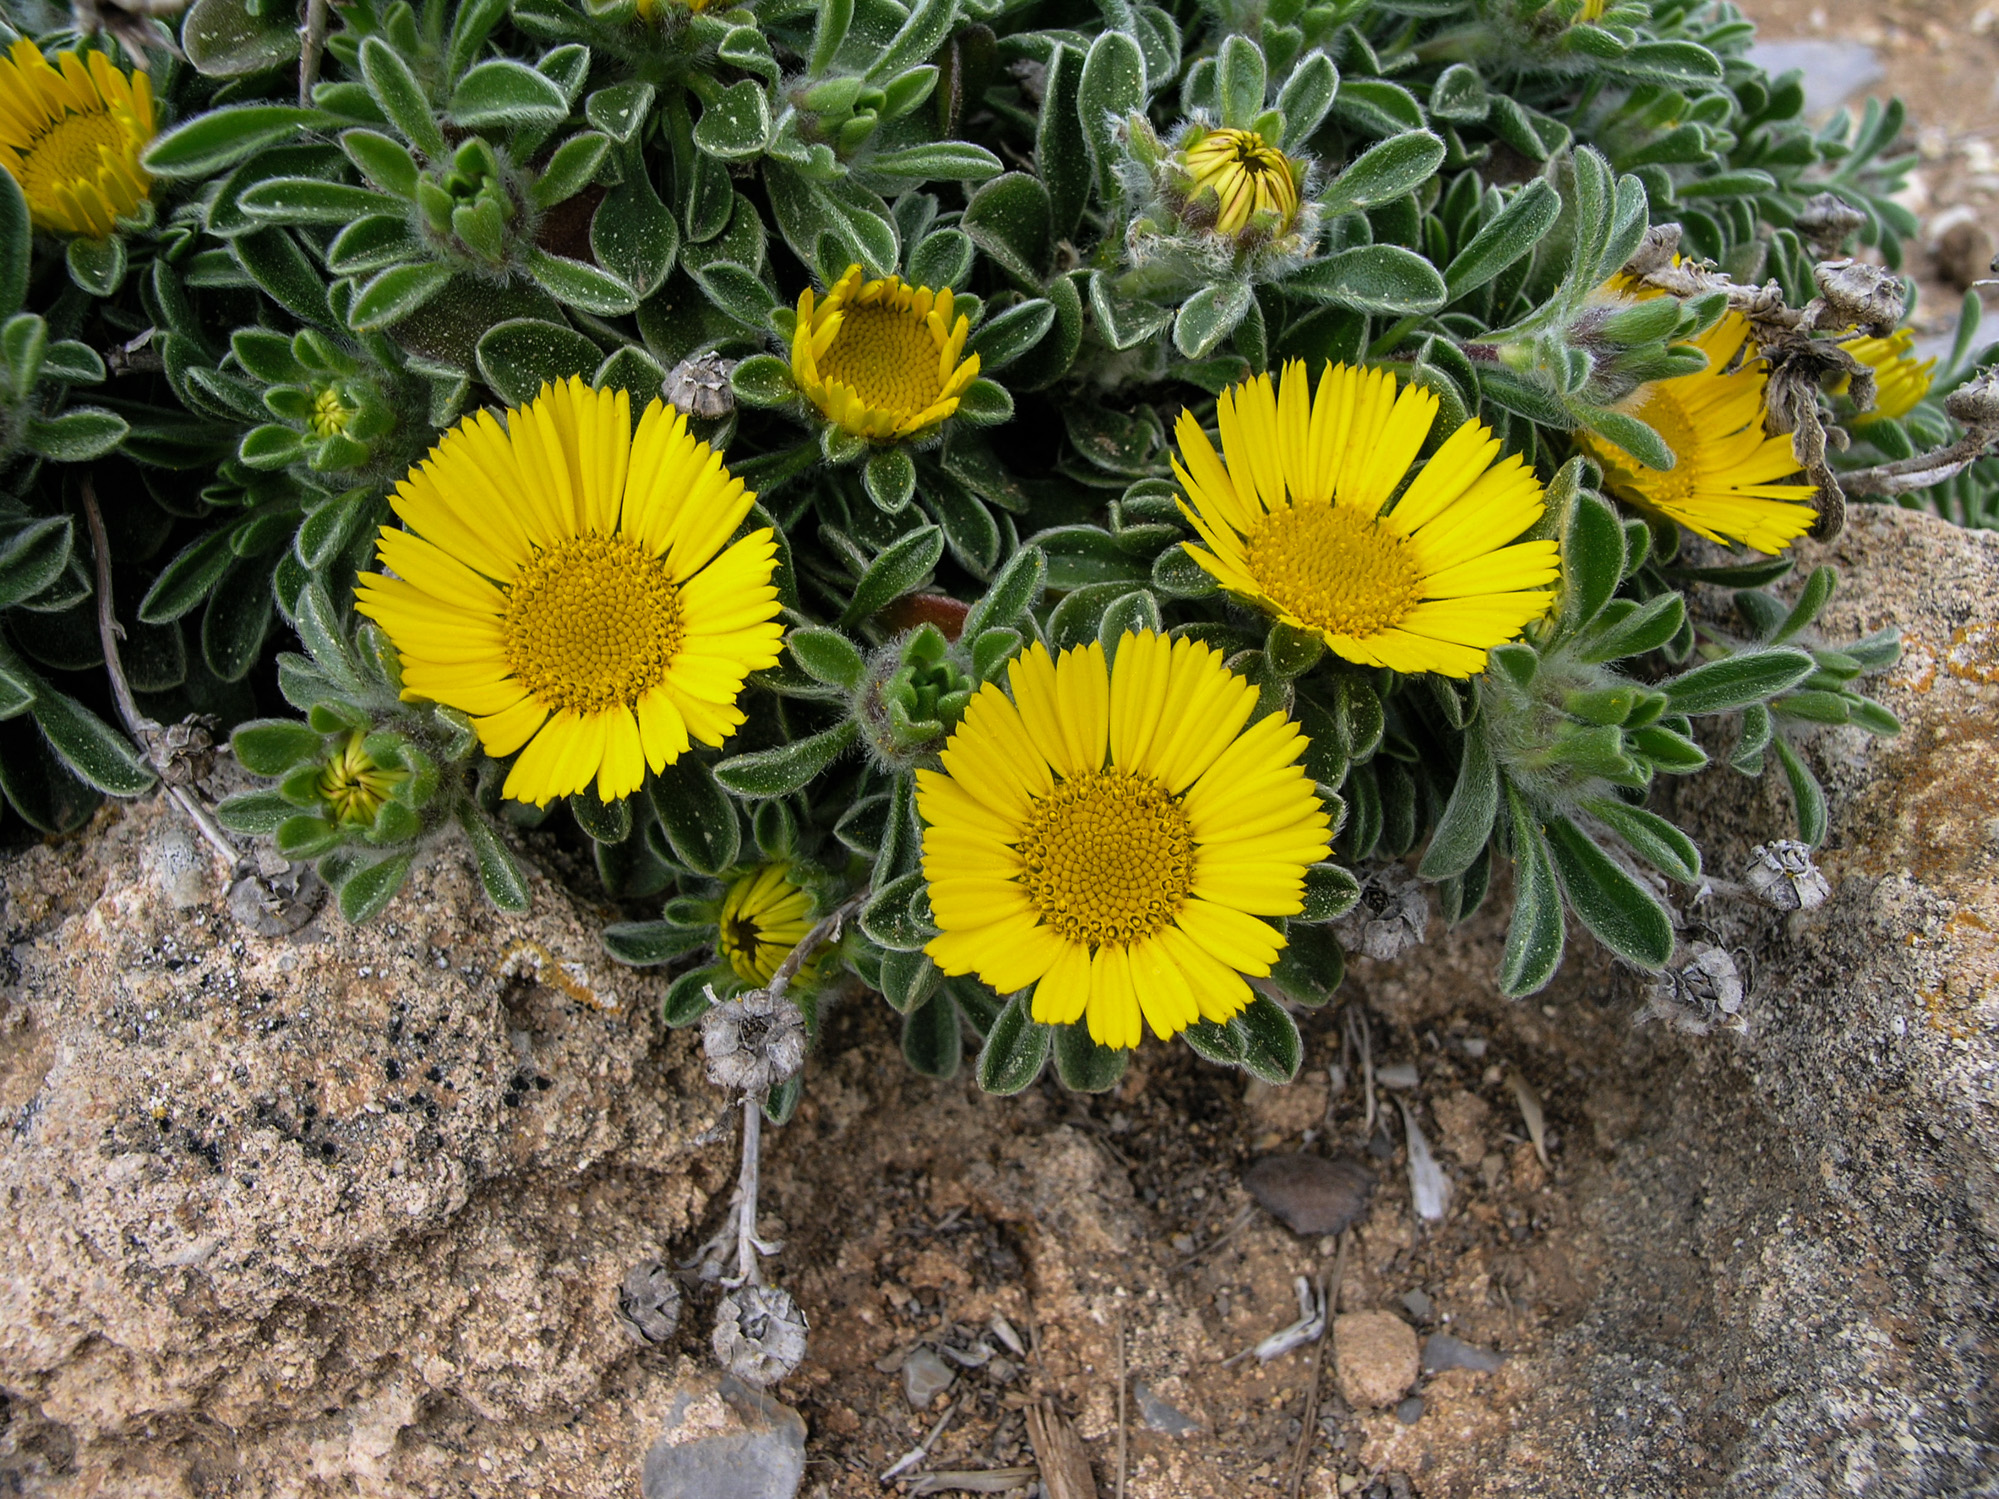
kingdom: Plantae
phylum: Tracheophyta
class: Magnoliopsida
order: Asterales
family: Asteraceae
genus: Pallenis
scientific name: Pallenis maritima
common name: Golden coin daisy
